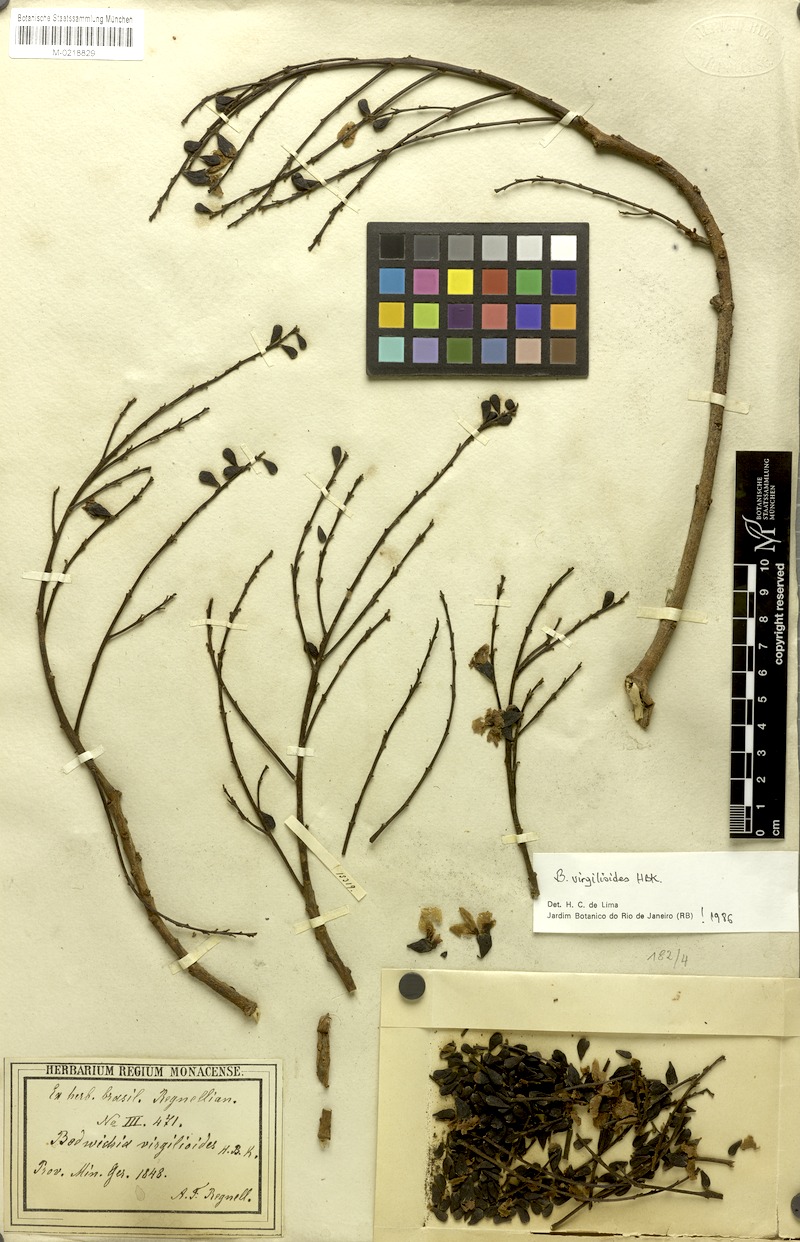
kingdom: Plantae
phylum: Tracheophyta
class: Magnoliopsida
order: Fabales
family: Fabaceae
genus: Bowdichia
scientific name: Bowdichia virgilioides
